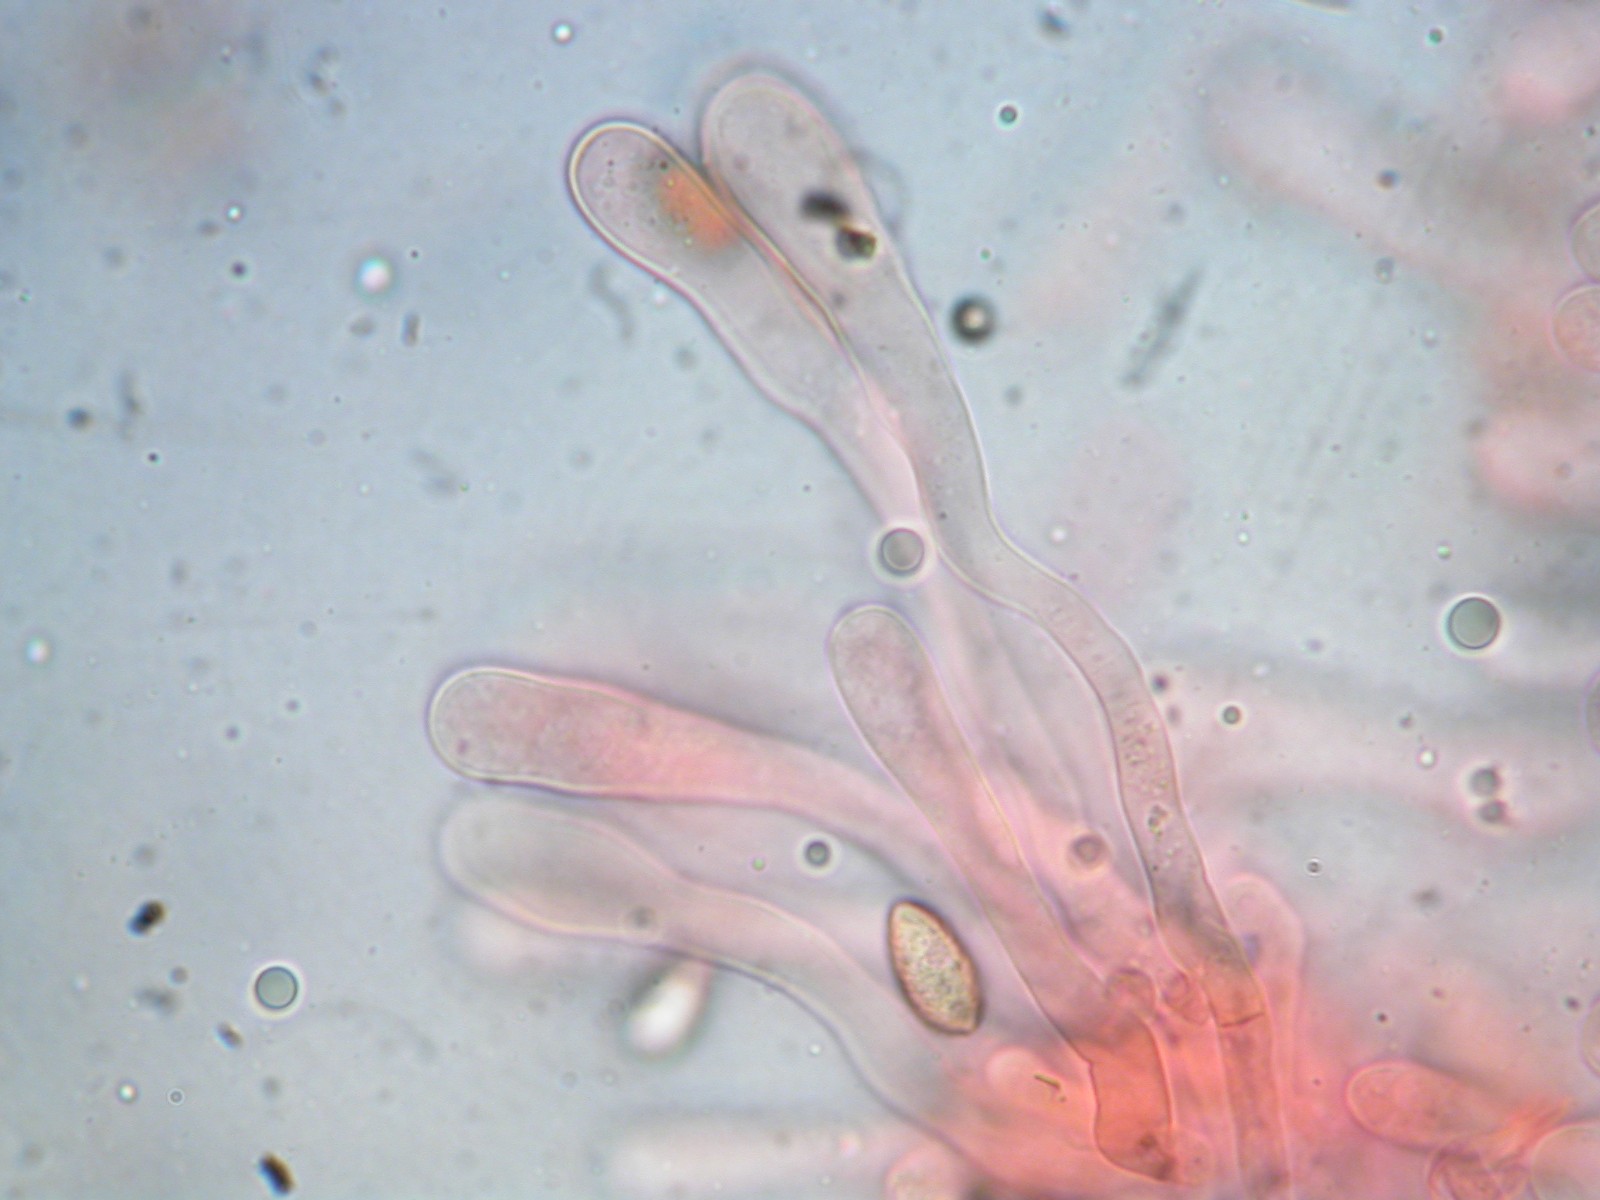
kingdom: Fungi
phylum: Basidiomycota
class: Agaricomycetes
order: Agaricales
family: Hymenogastraceae
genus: Hebeloma
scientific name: Hebeloma
